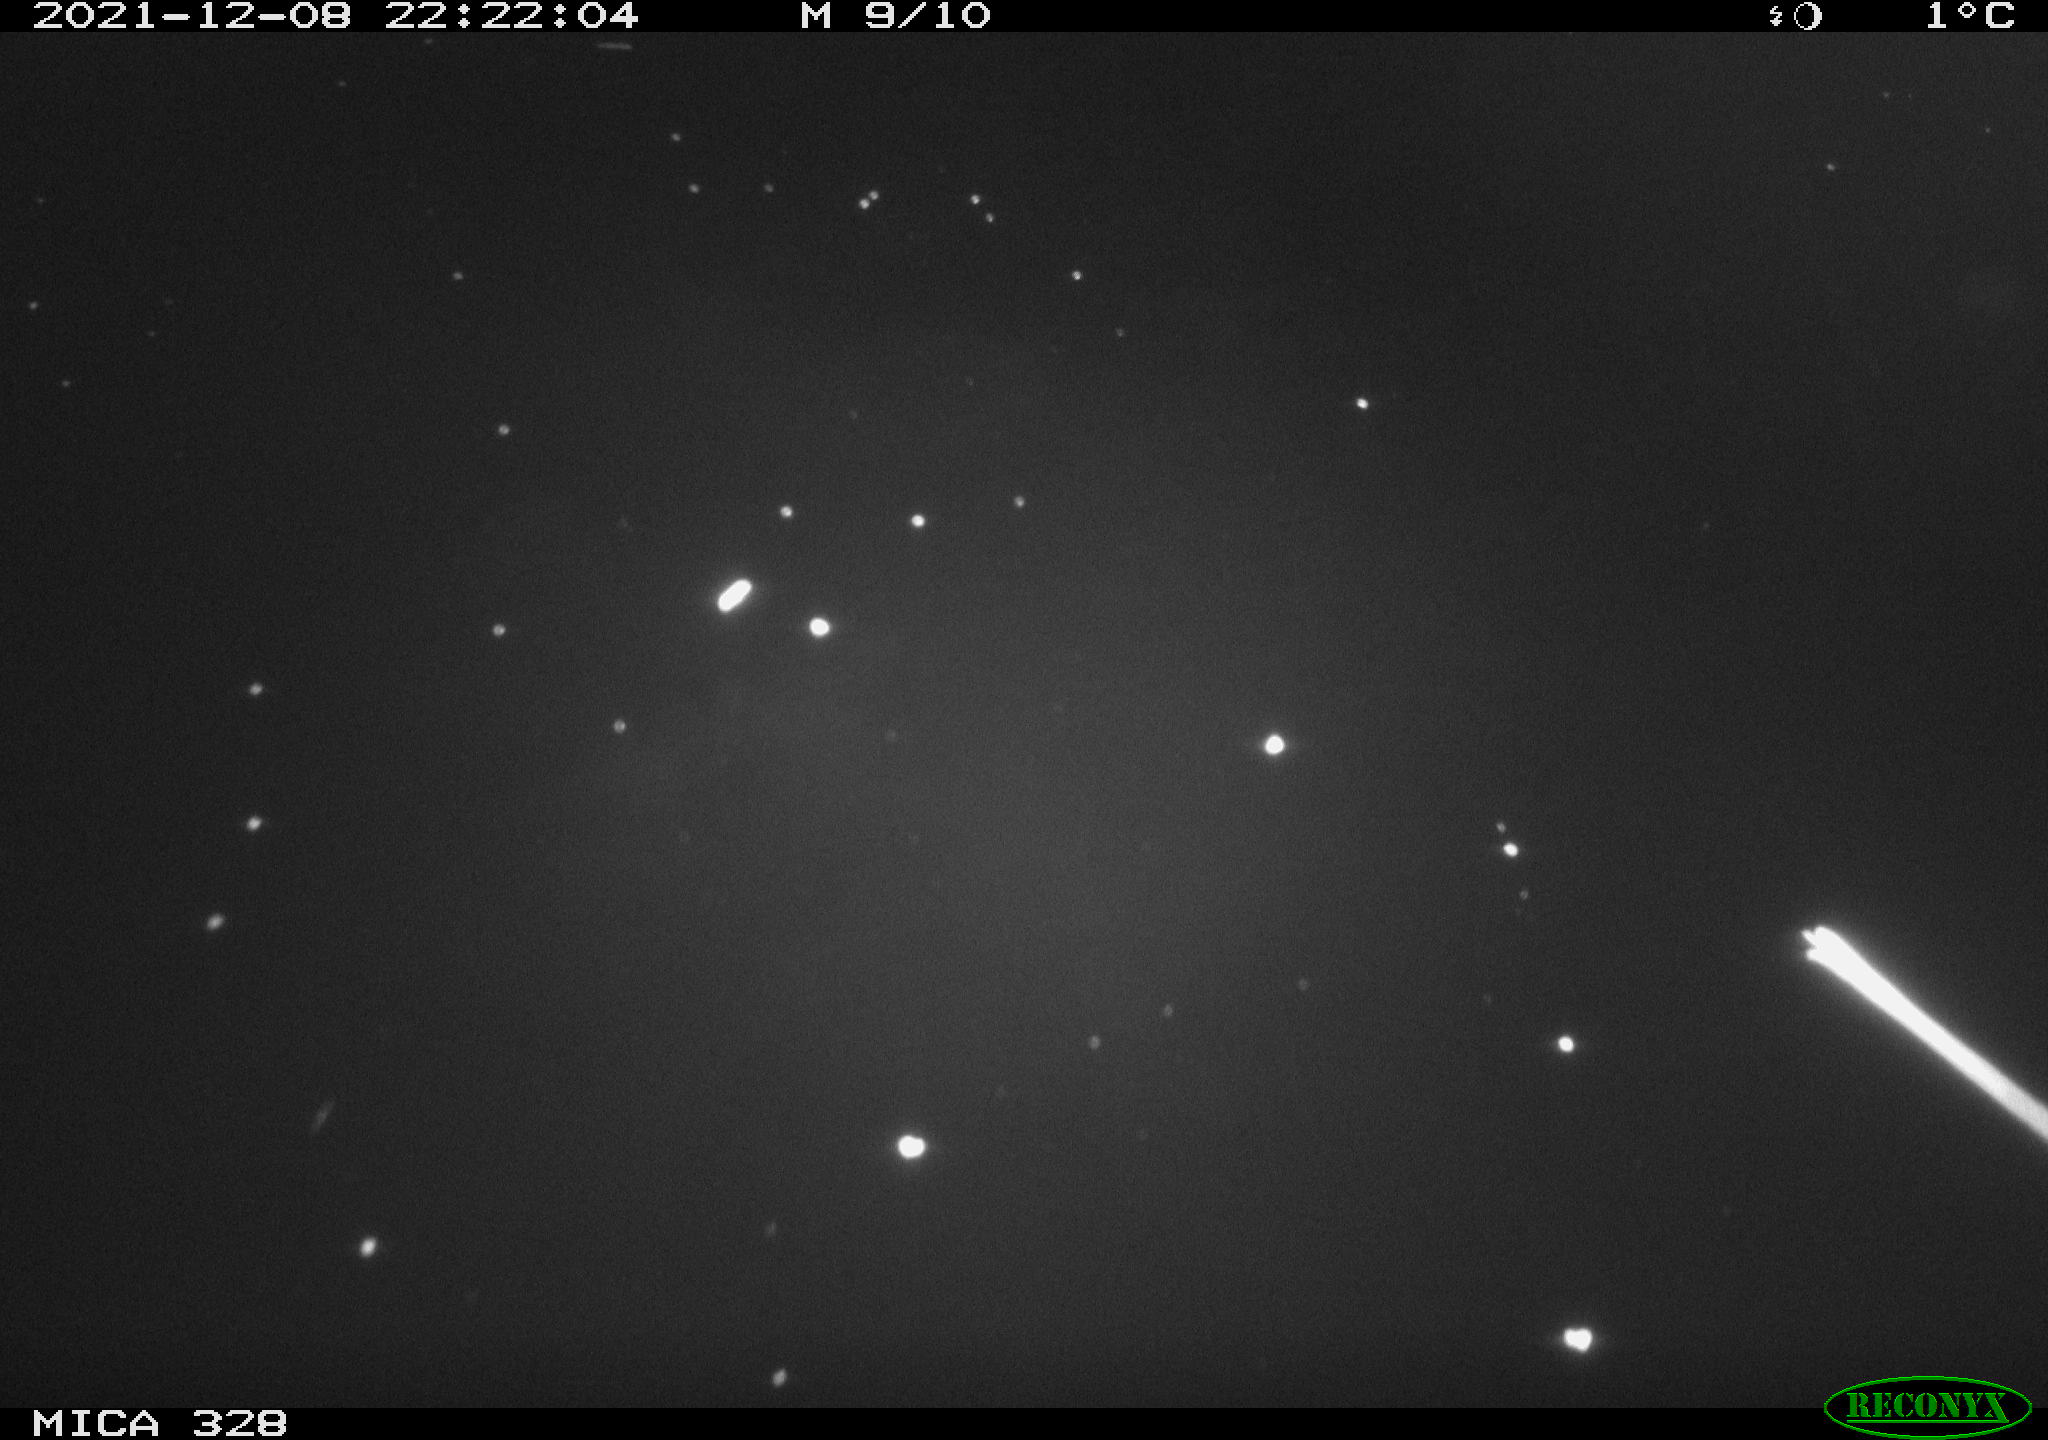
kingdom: Animalia
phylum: Chordata
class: Aves
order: Anseriformes
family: Anatidae
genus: Anas
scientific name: Anas platyrhynchos
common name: Mallard
